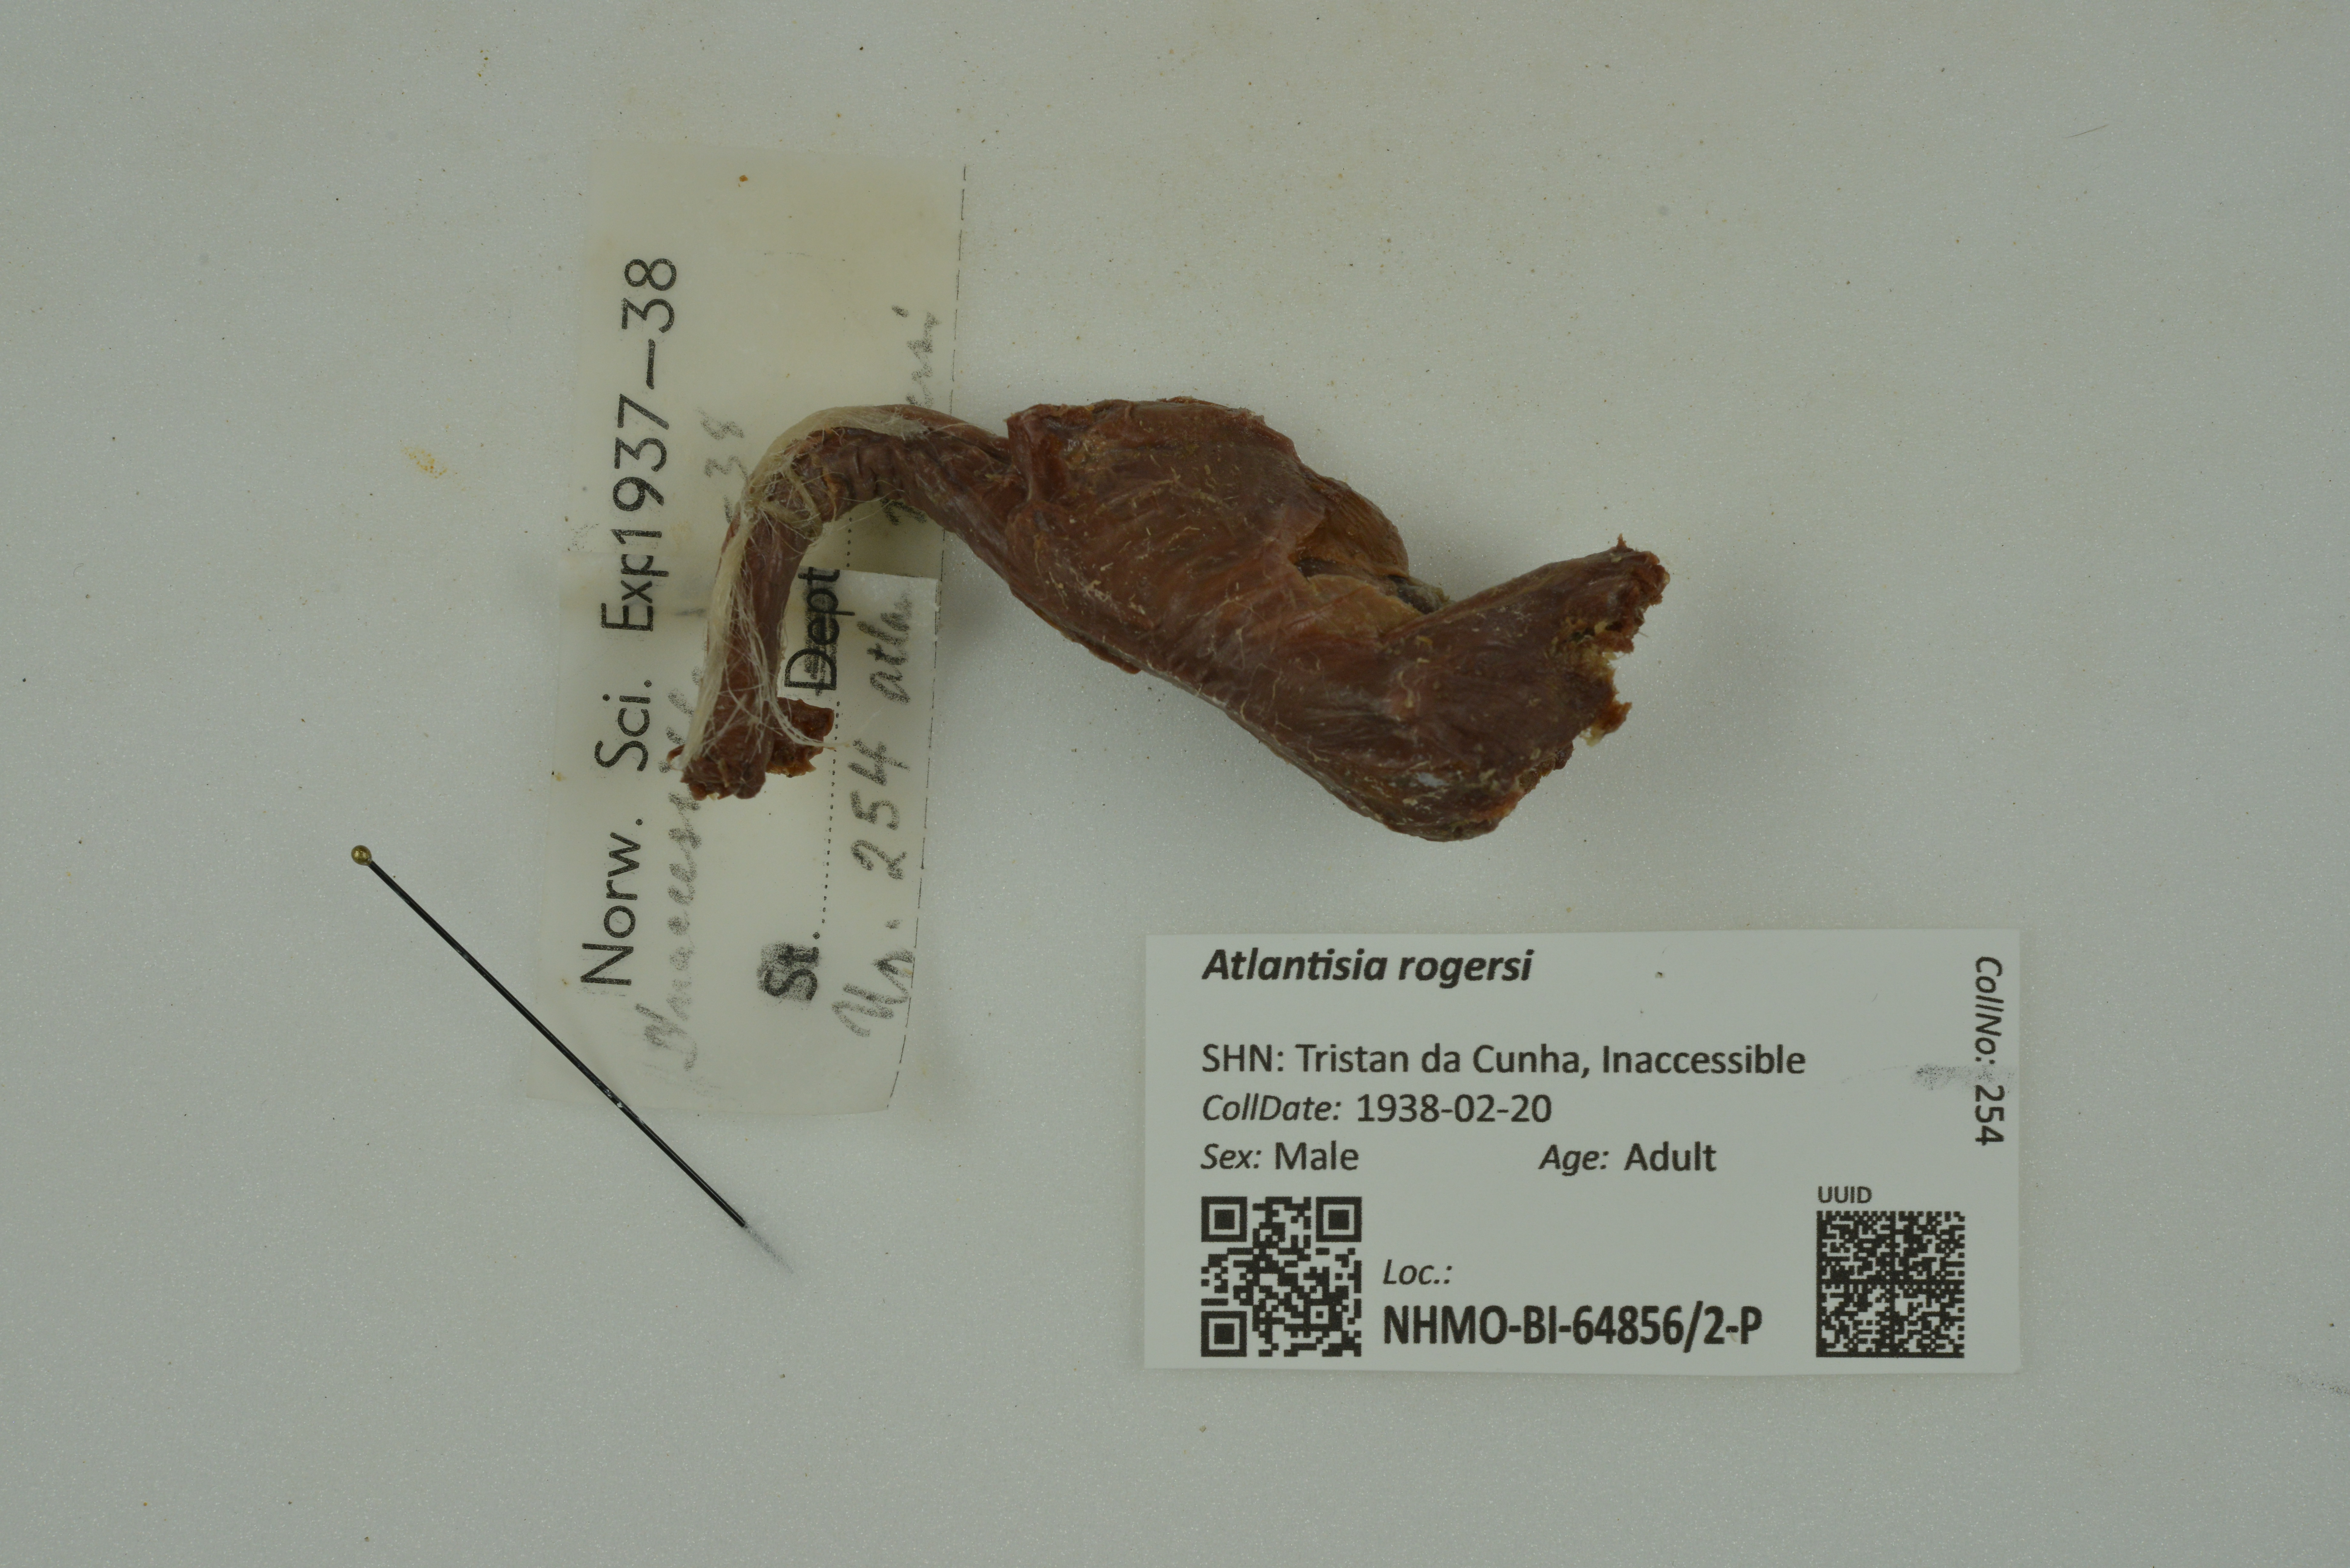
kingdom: Animalia
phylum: Chordata
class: Aves
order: Gruiformes
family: Rallidae
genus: Atlantisia
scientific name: Atlantisia rogersi
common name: Inaccessible island rail
